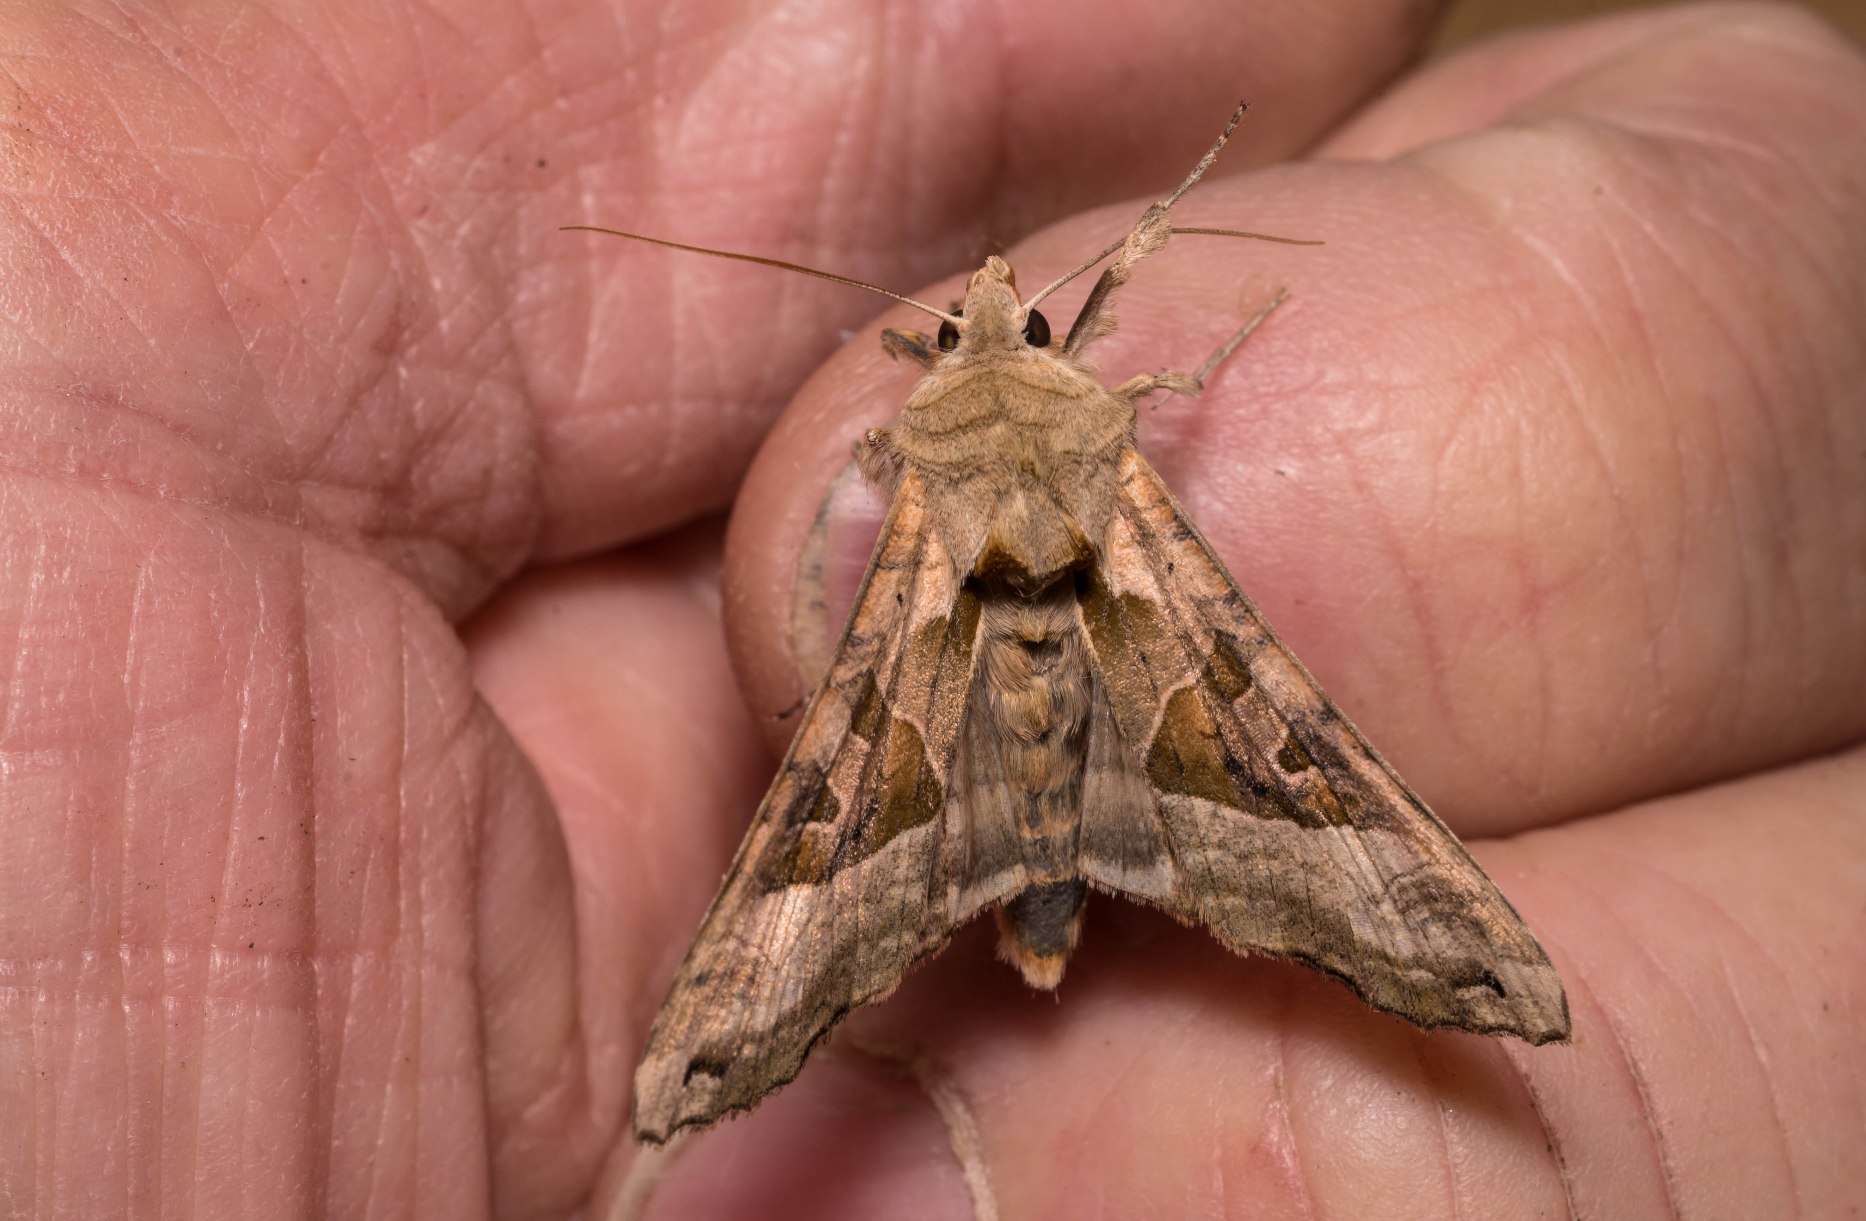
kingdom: Animalia
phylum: Arthropoda
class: Insecta
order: Lepidoptera
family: Noctuidae
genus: Phlogophora
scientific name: Phlogophora meticulosa
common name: Agatugle
